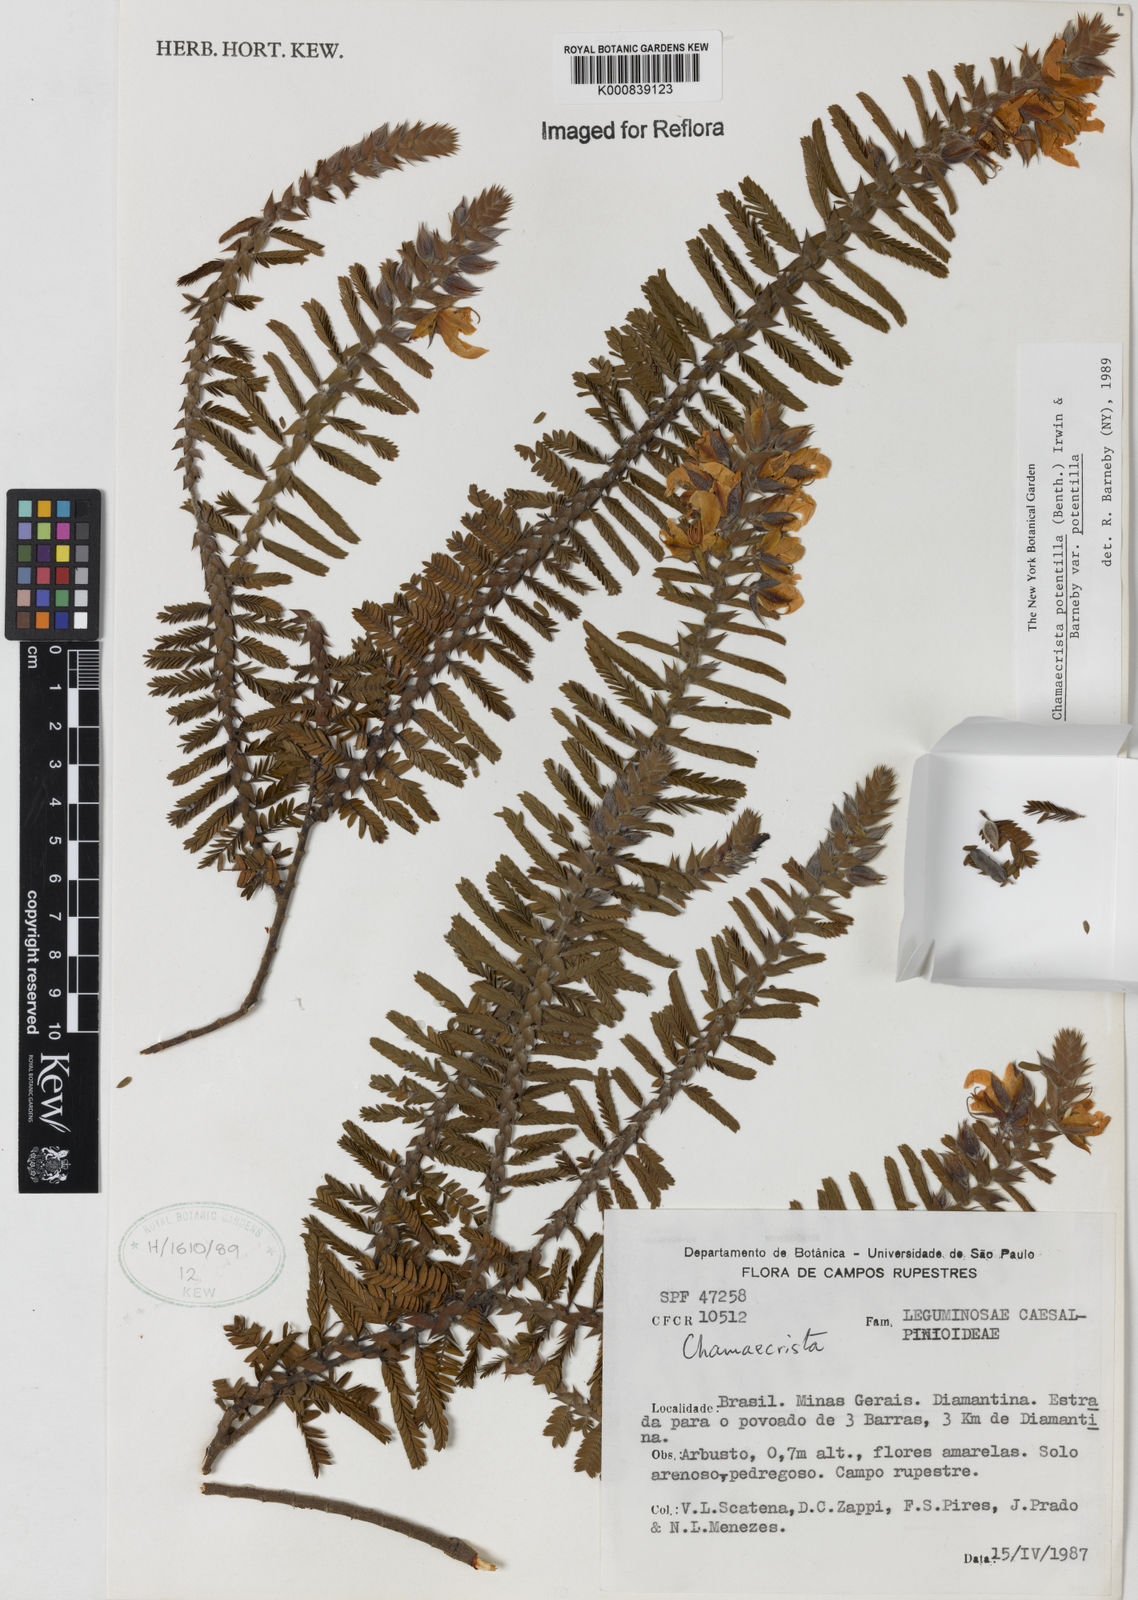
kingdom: Plantae
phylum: Tracheophyta
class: Magnoliopsida
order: Fabales
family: Fabaceae
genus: Chamaecrista
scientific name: Chamaecrista potentilla
